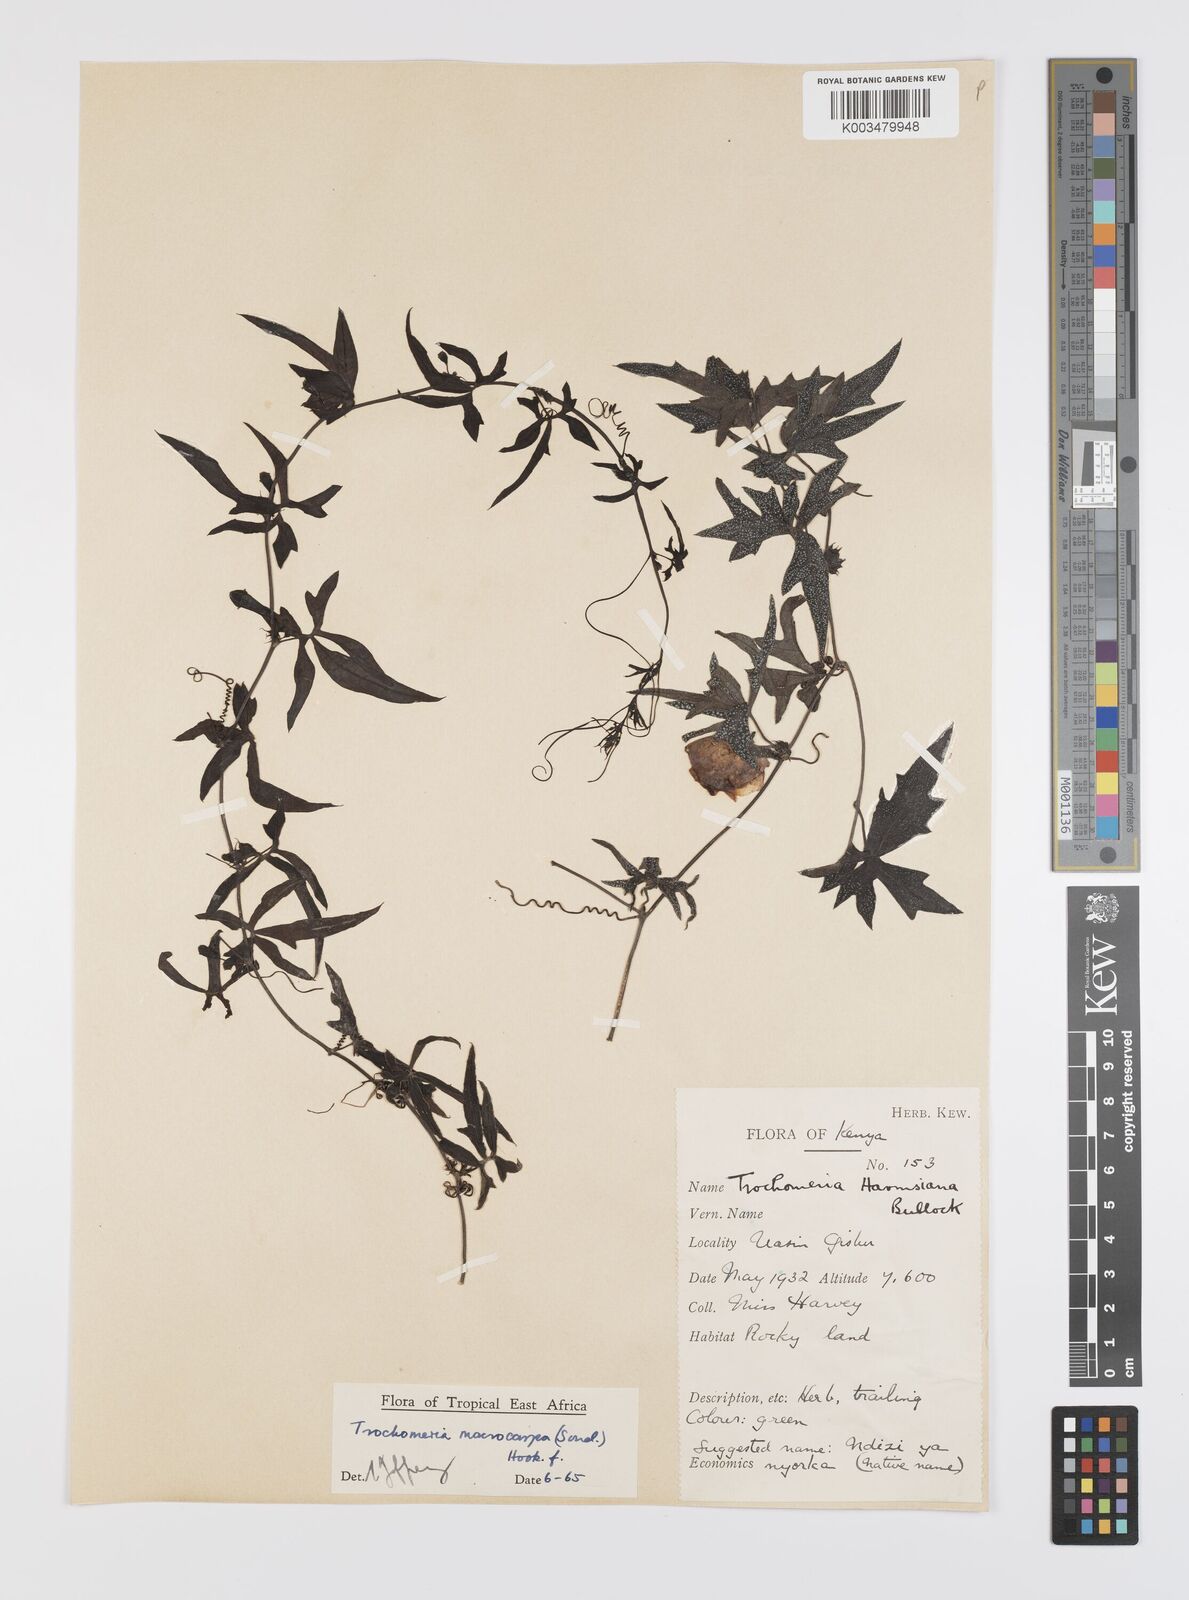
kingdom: Plantae
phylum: Tracheophyta
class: Magnoliopsida
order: Cucurbitales
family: Cucurbitaceae
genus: Trochomeria
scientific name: Trochomeria macrocarpa
